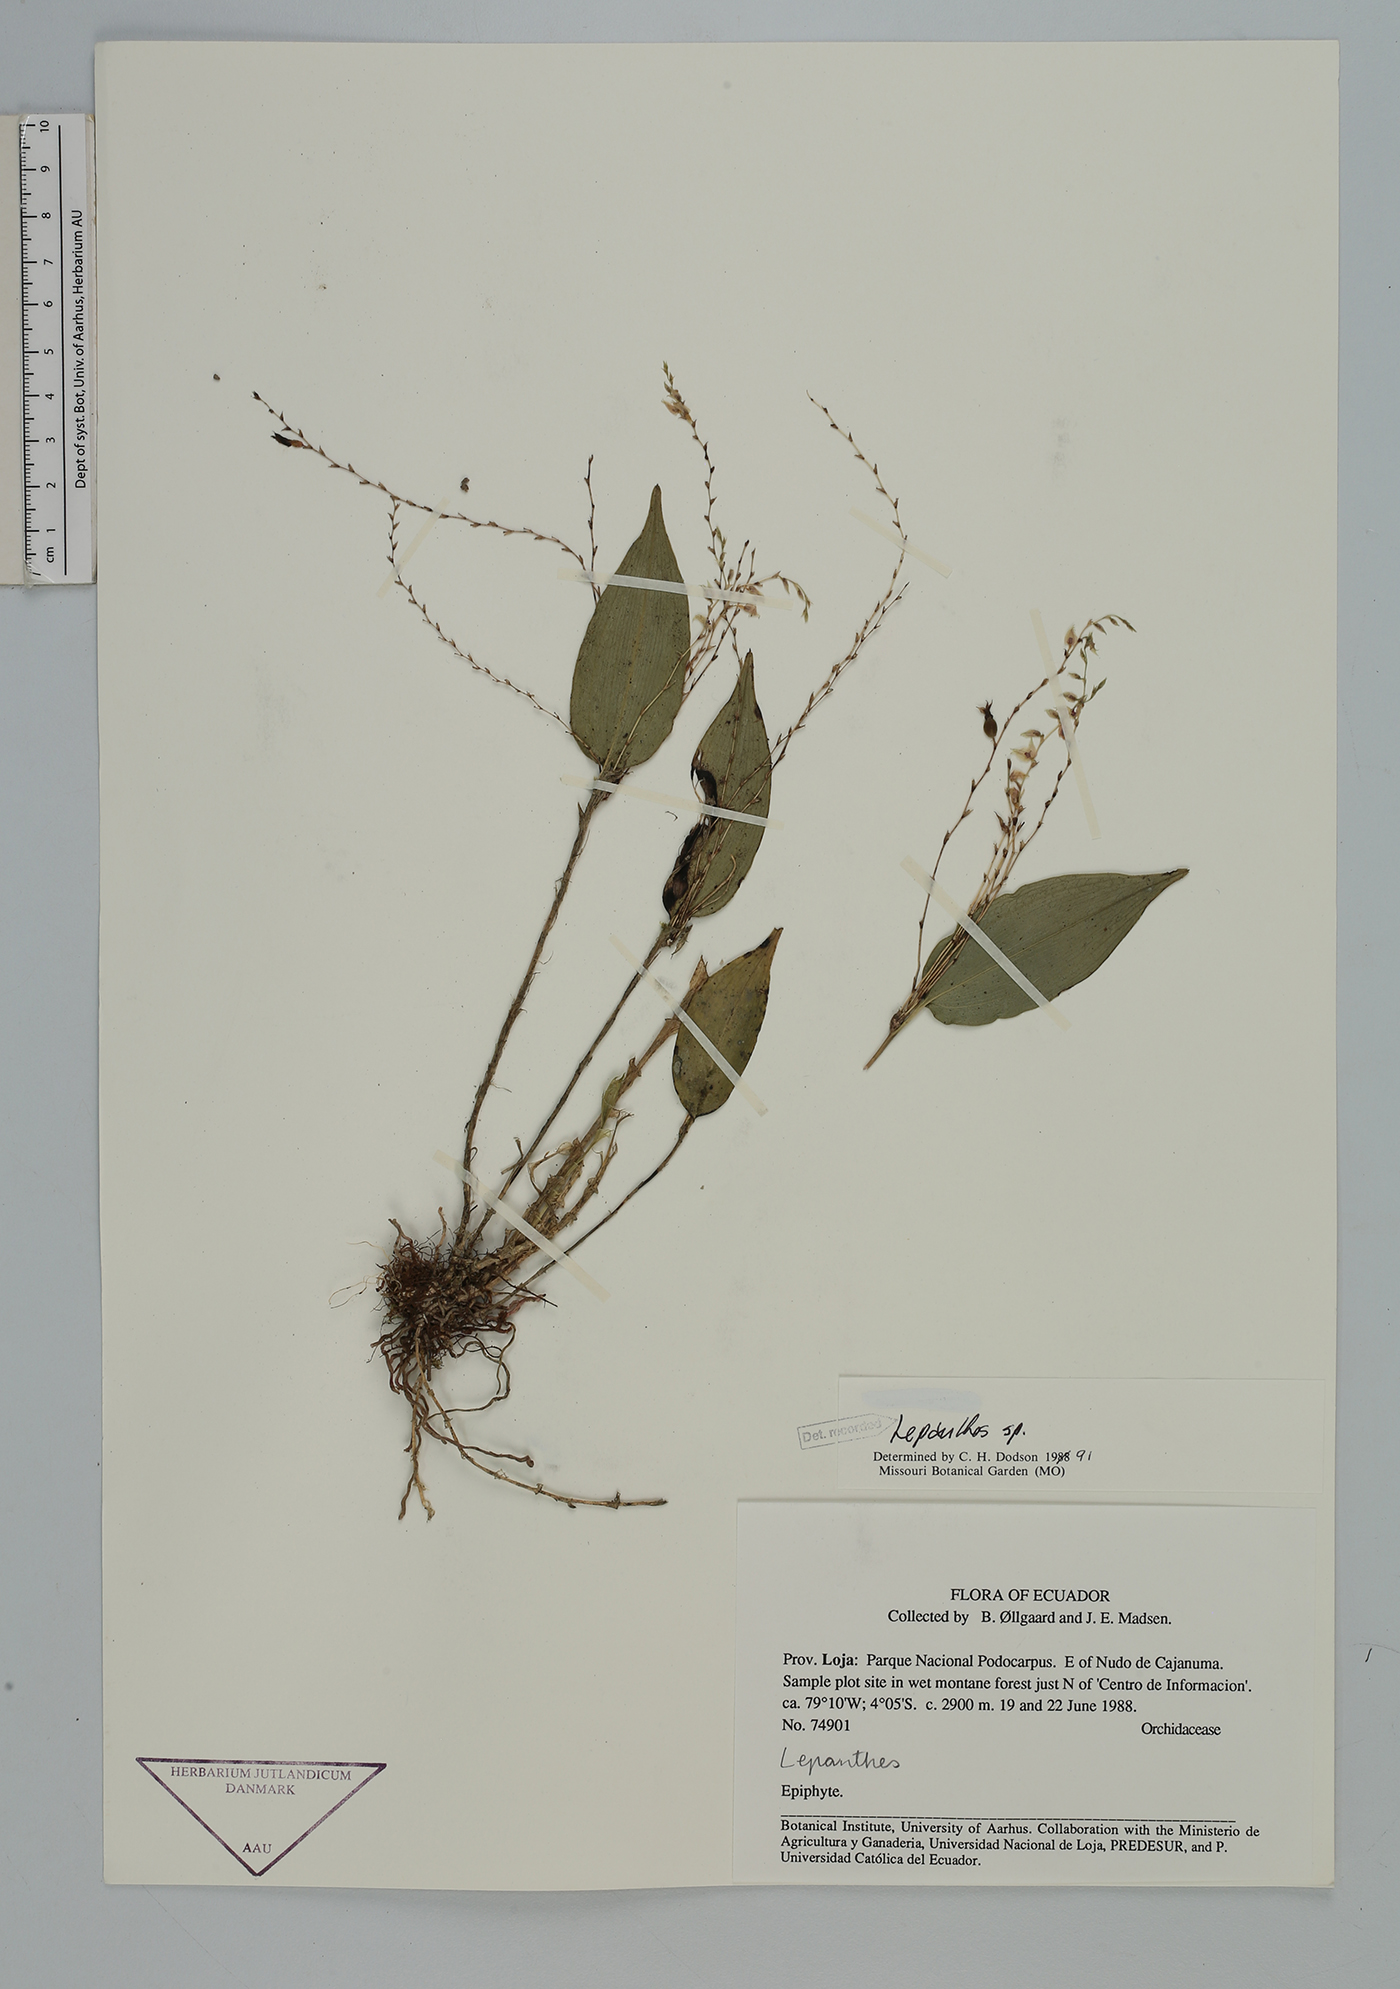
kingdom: Plantae
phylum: Tracheophyta
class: Liliopsida
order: Asparagales
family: Orchidaceae
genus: Lepanthes
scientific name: Lepanthes
